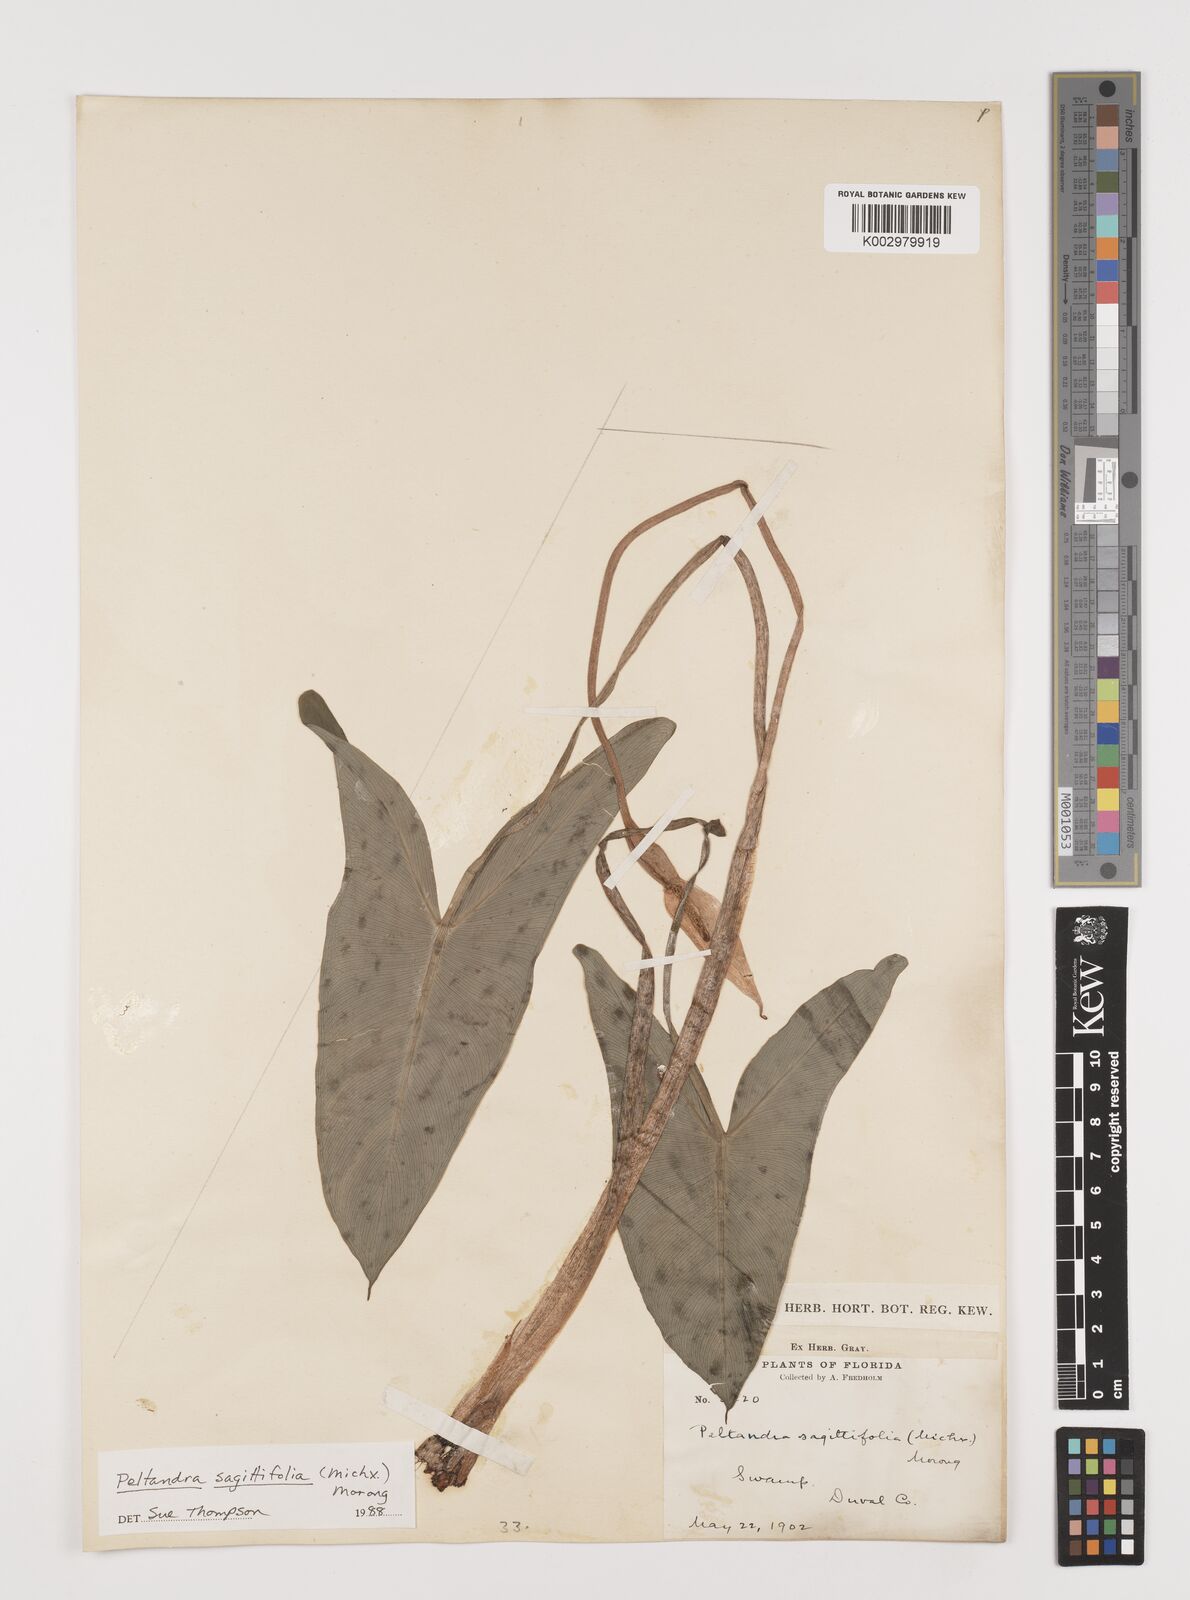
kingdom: Plantae
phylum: Tracheophyta
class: Liliopsida
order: Alismatales
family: Araceae
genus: Peltandra
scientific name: Peltandra sagittifolia
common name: White arrow arum
